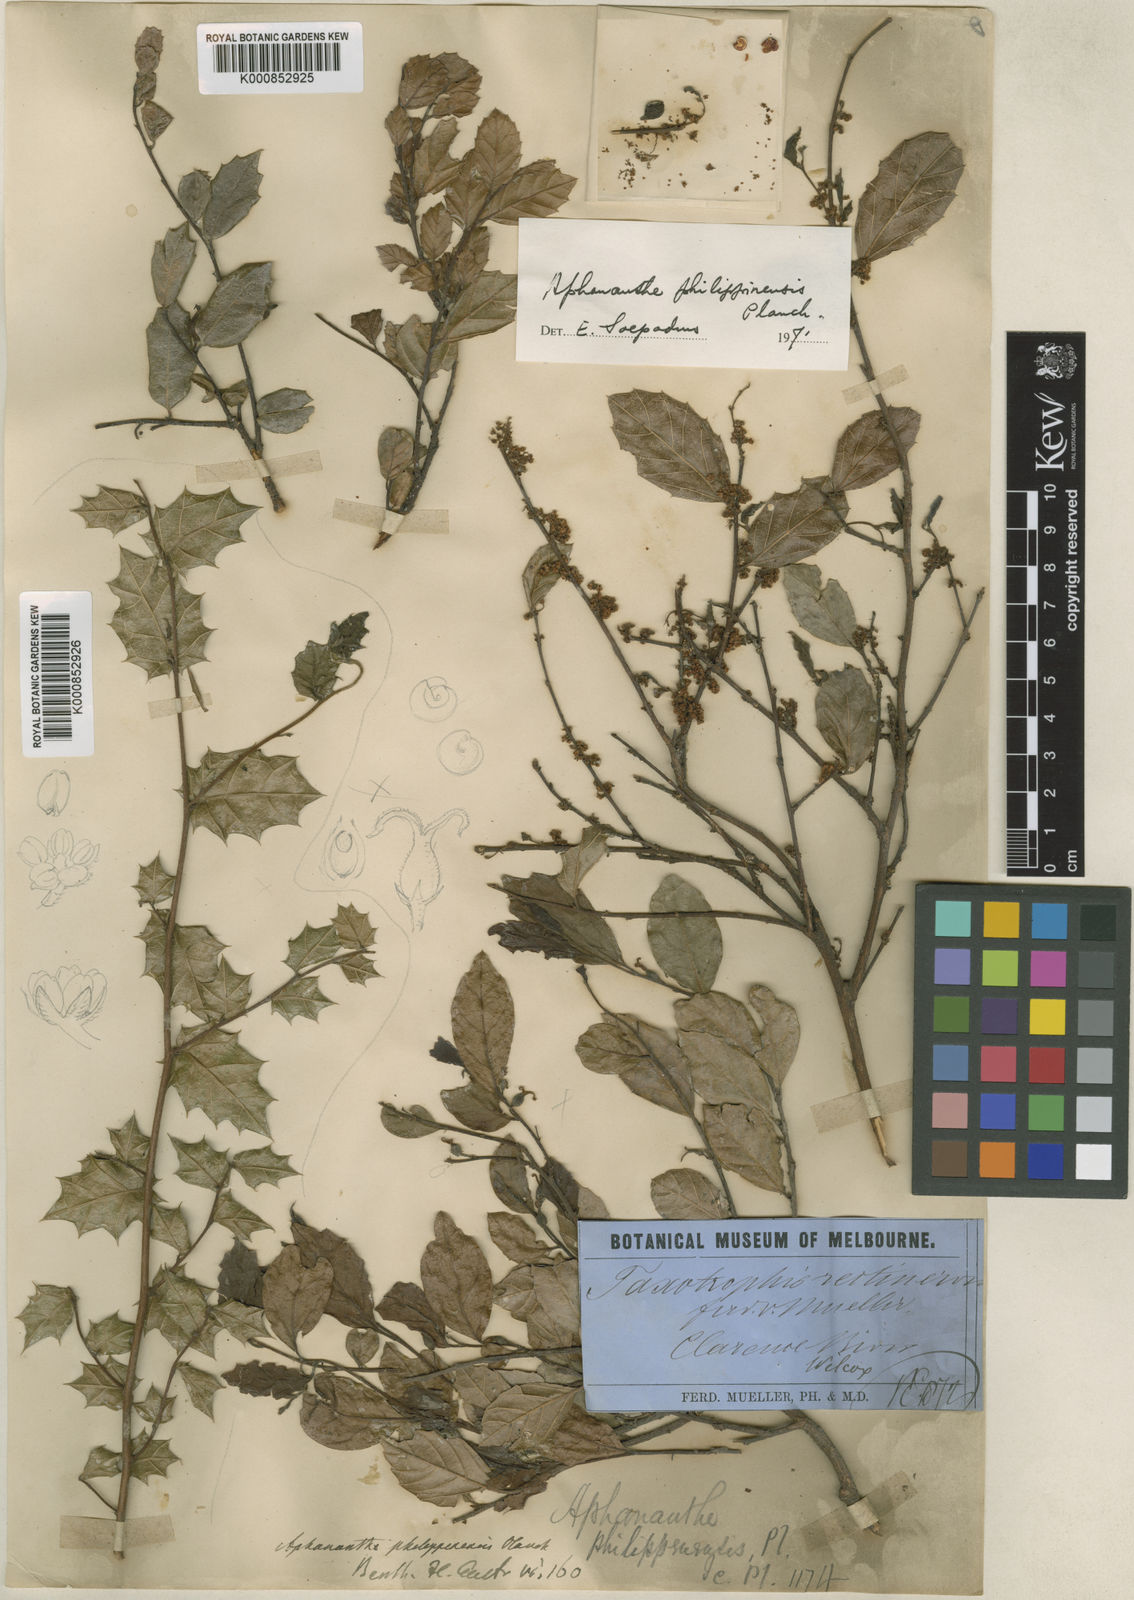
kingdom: Plantae
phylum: Tracheophyta
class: Magnoliopsida
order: Rosales
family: Cannabaceae
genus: Aphananthe
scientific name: Aphananthe philippinensis
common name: Wild holly
